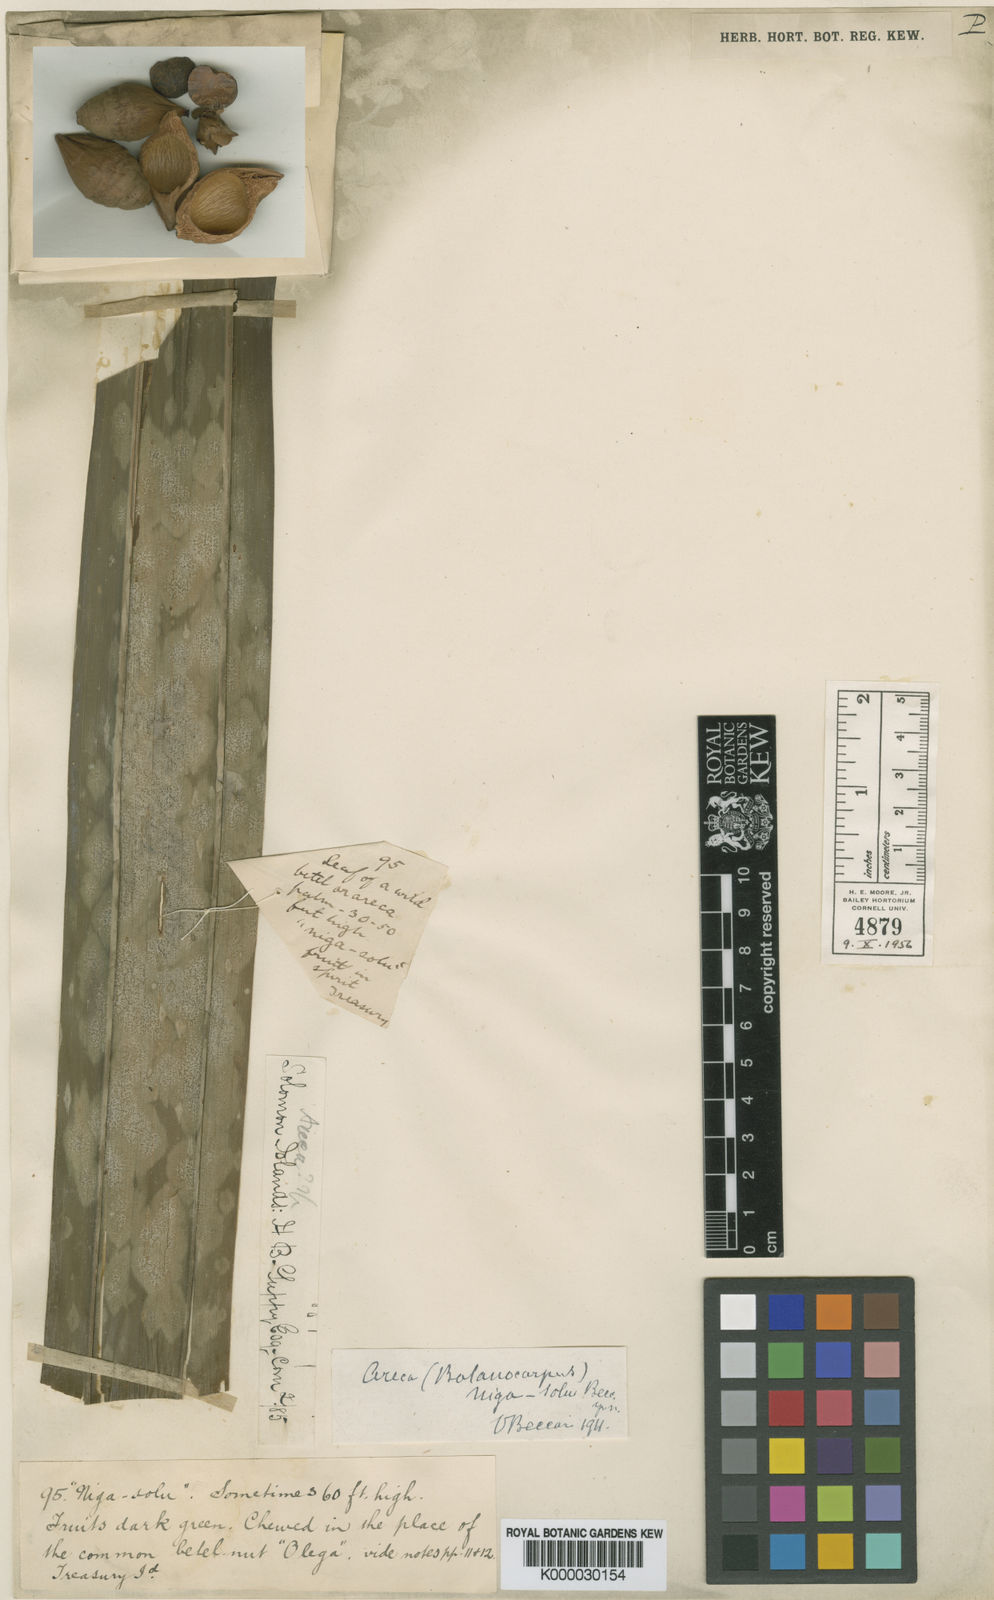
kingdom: Plantae
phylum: Tracheophyta
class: Liliopsida
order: Arecales
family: Arecaceae
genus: Areca
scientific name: Areca macrocalyx
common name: Highland betel-nut palm
